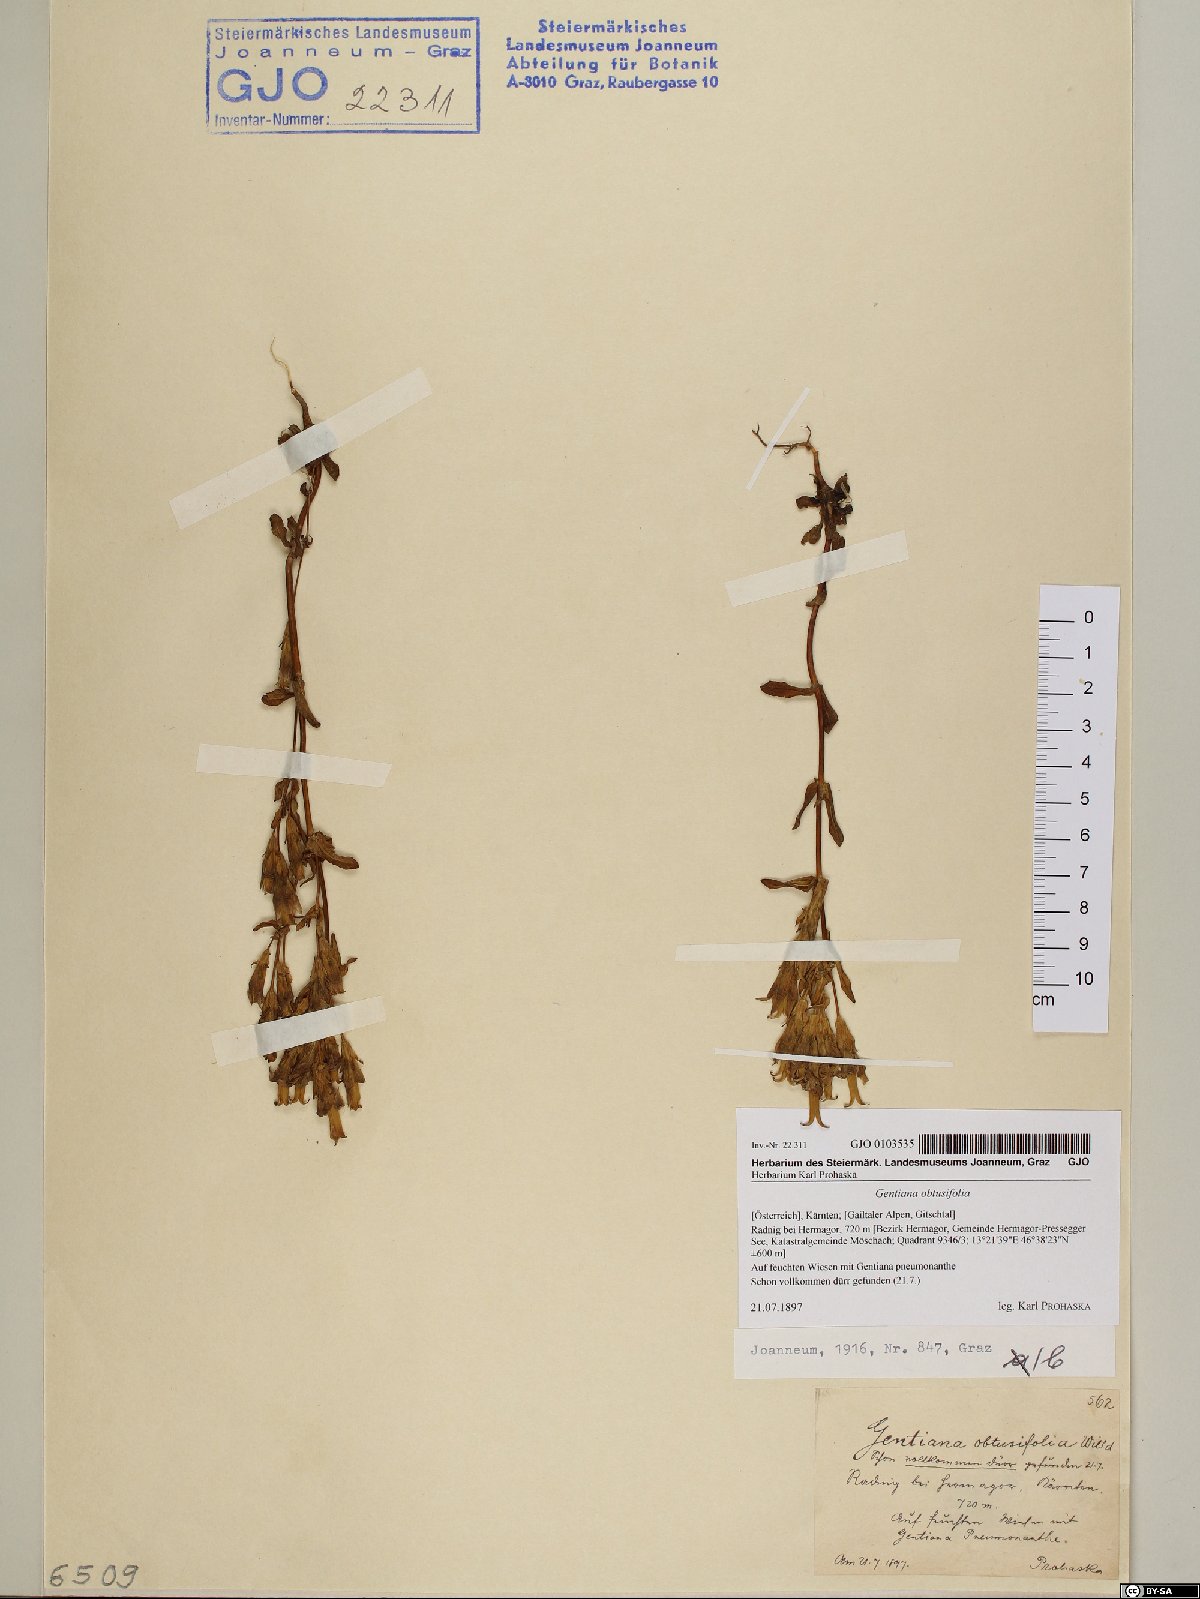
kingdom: Plantae
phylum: Tracheophyta
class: Magnoliopsida
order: Gentianales
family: Gentianaceae
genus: Gentianella
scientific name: Gentianella obtusifolia
